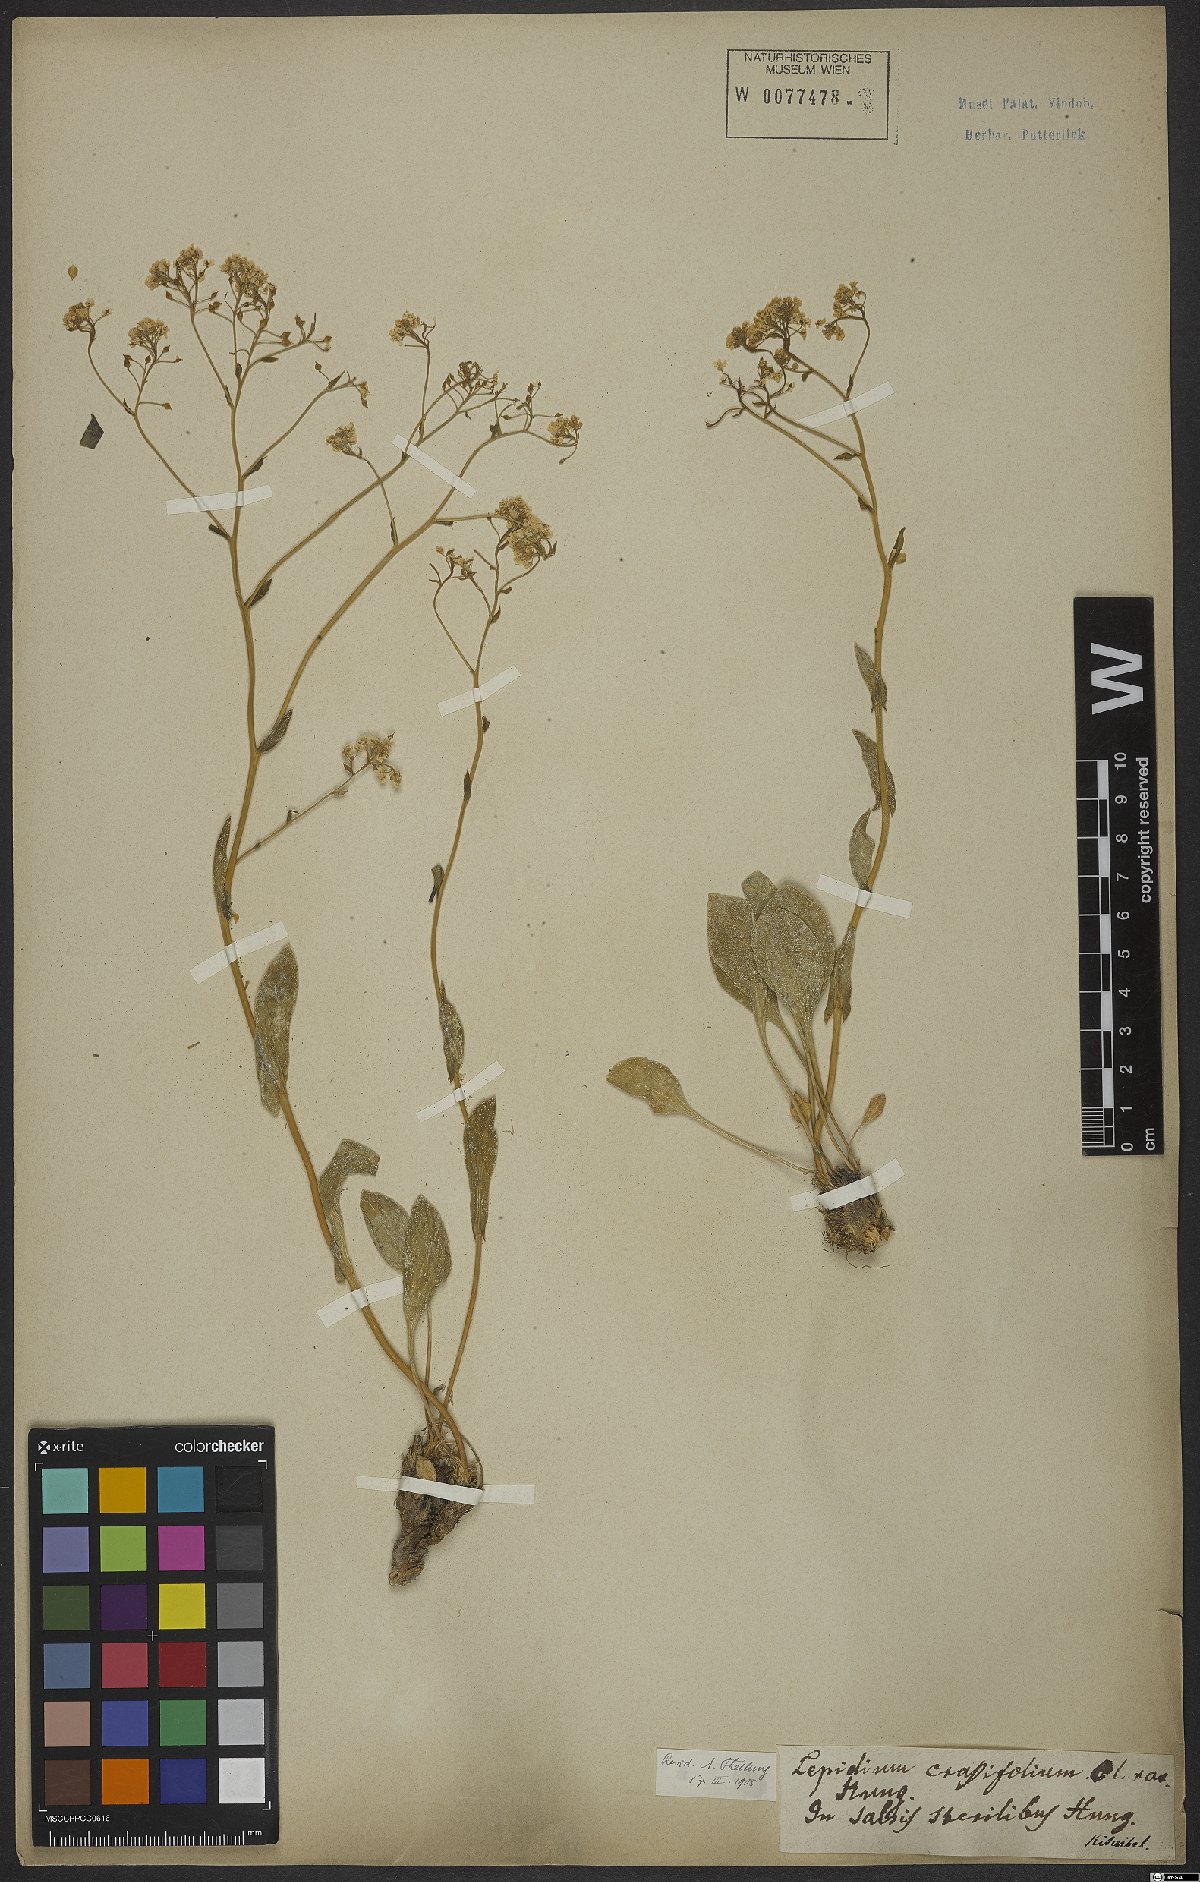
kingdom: Plantae
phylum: Tracheophyta
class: Magnoliopsida
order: Brassicales
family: Brassicaceae
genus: Lepidium
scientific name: Lepidium cartilagineum
